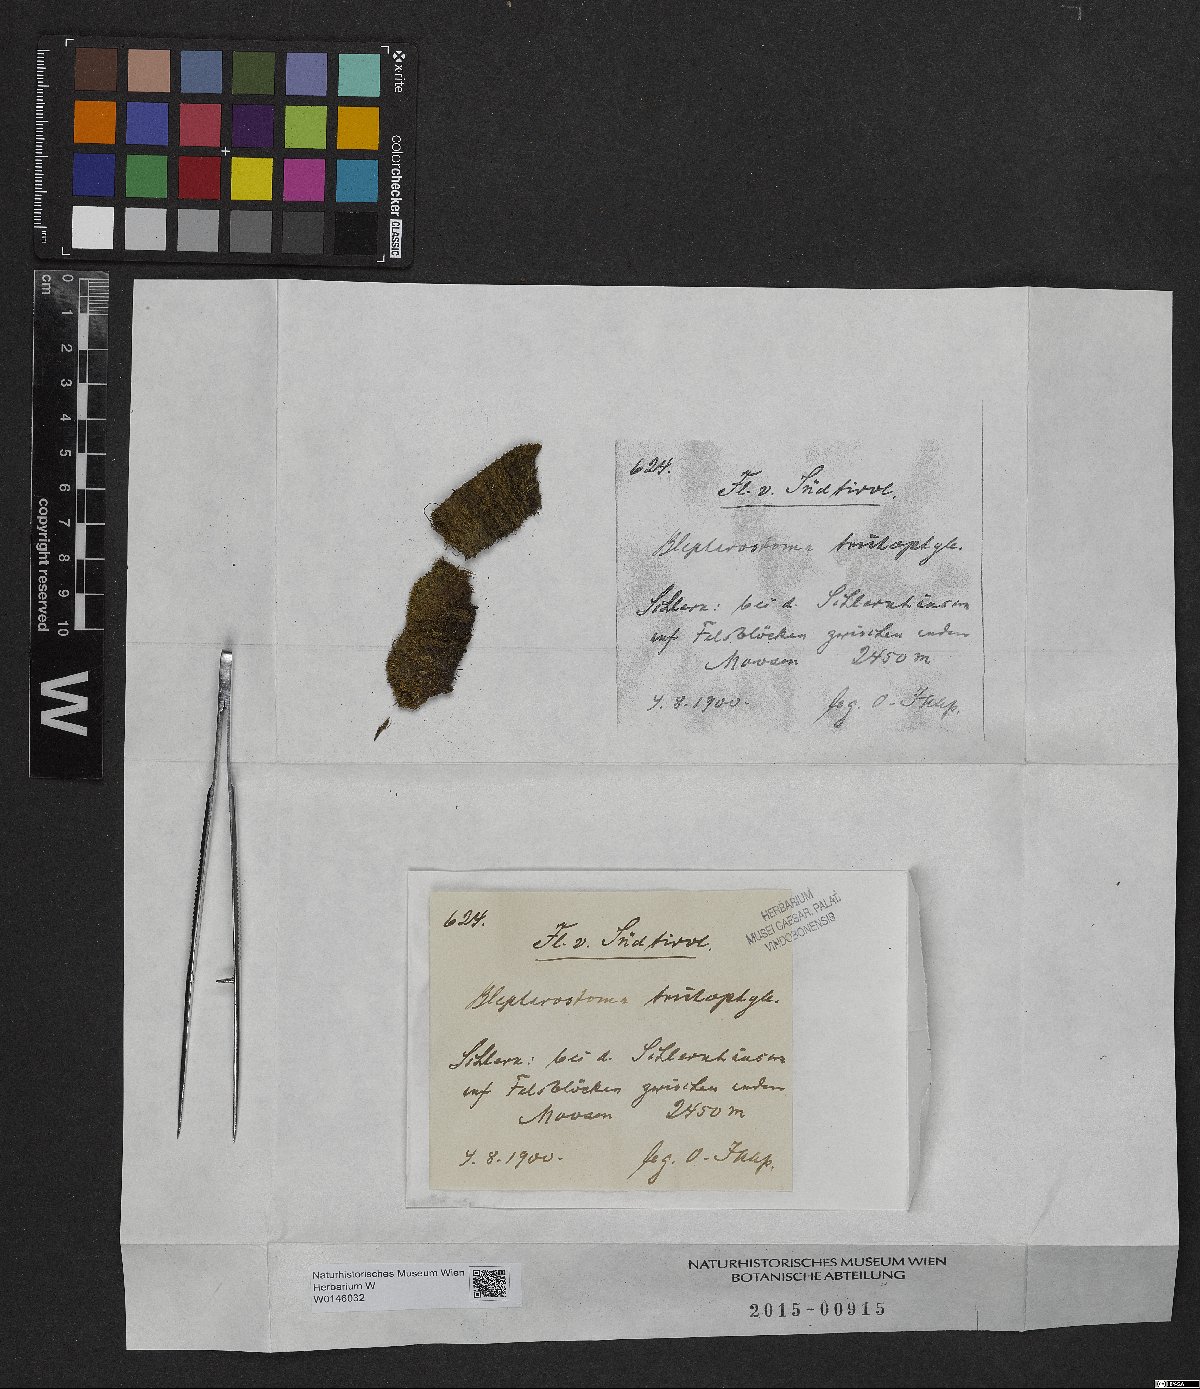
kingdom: Plantae
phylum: Marchantiophyta
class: Jungermanniopsida
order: Jungermanniales
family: Blepharostomataceae
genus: Blepharostoma
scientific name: Blepharostoma trichophyllum
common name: Hairy threadwort
